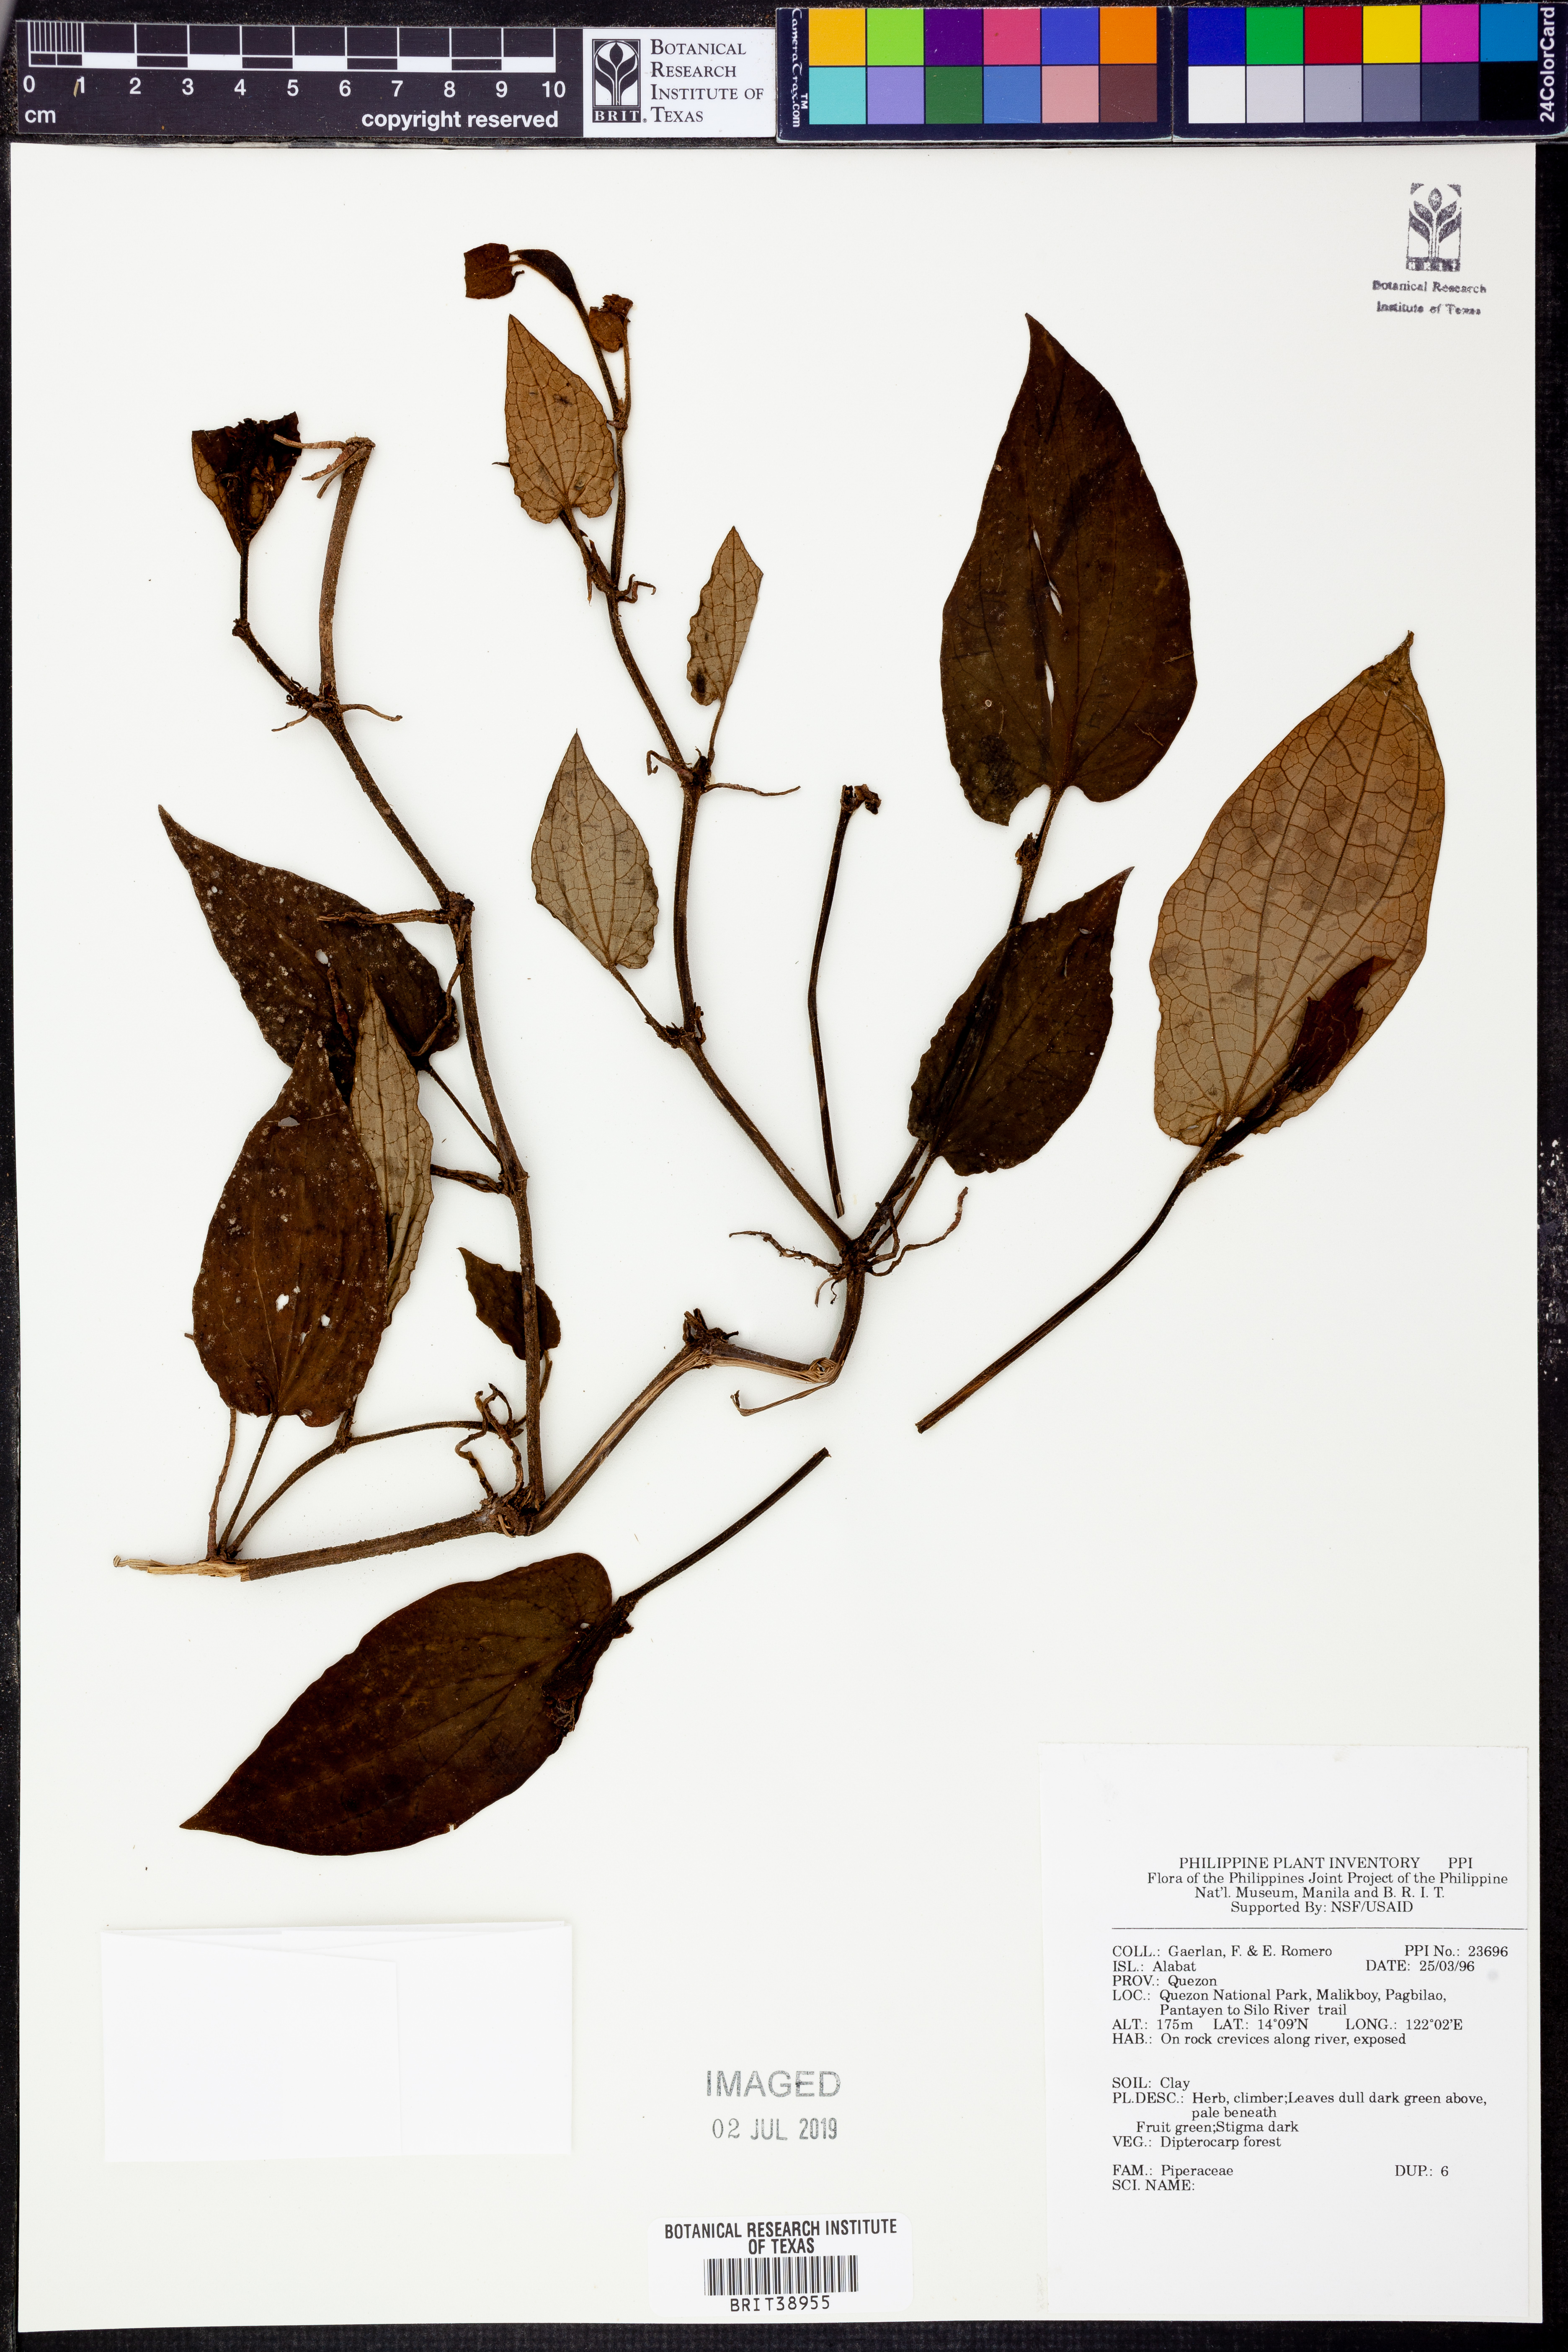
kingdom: Plantae
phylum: Tracheophyta
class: Magnoliopsida
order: Piperales
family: Piperaceae
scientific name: Piperaceae
